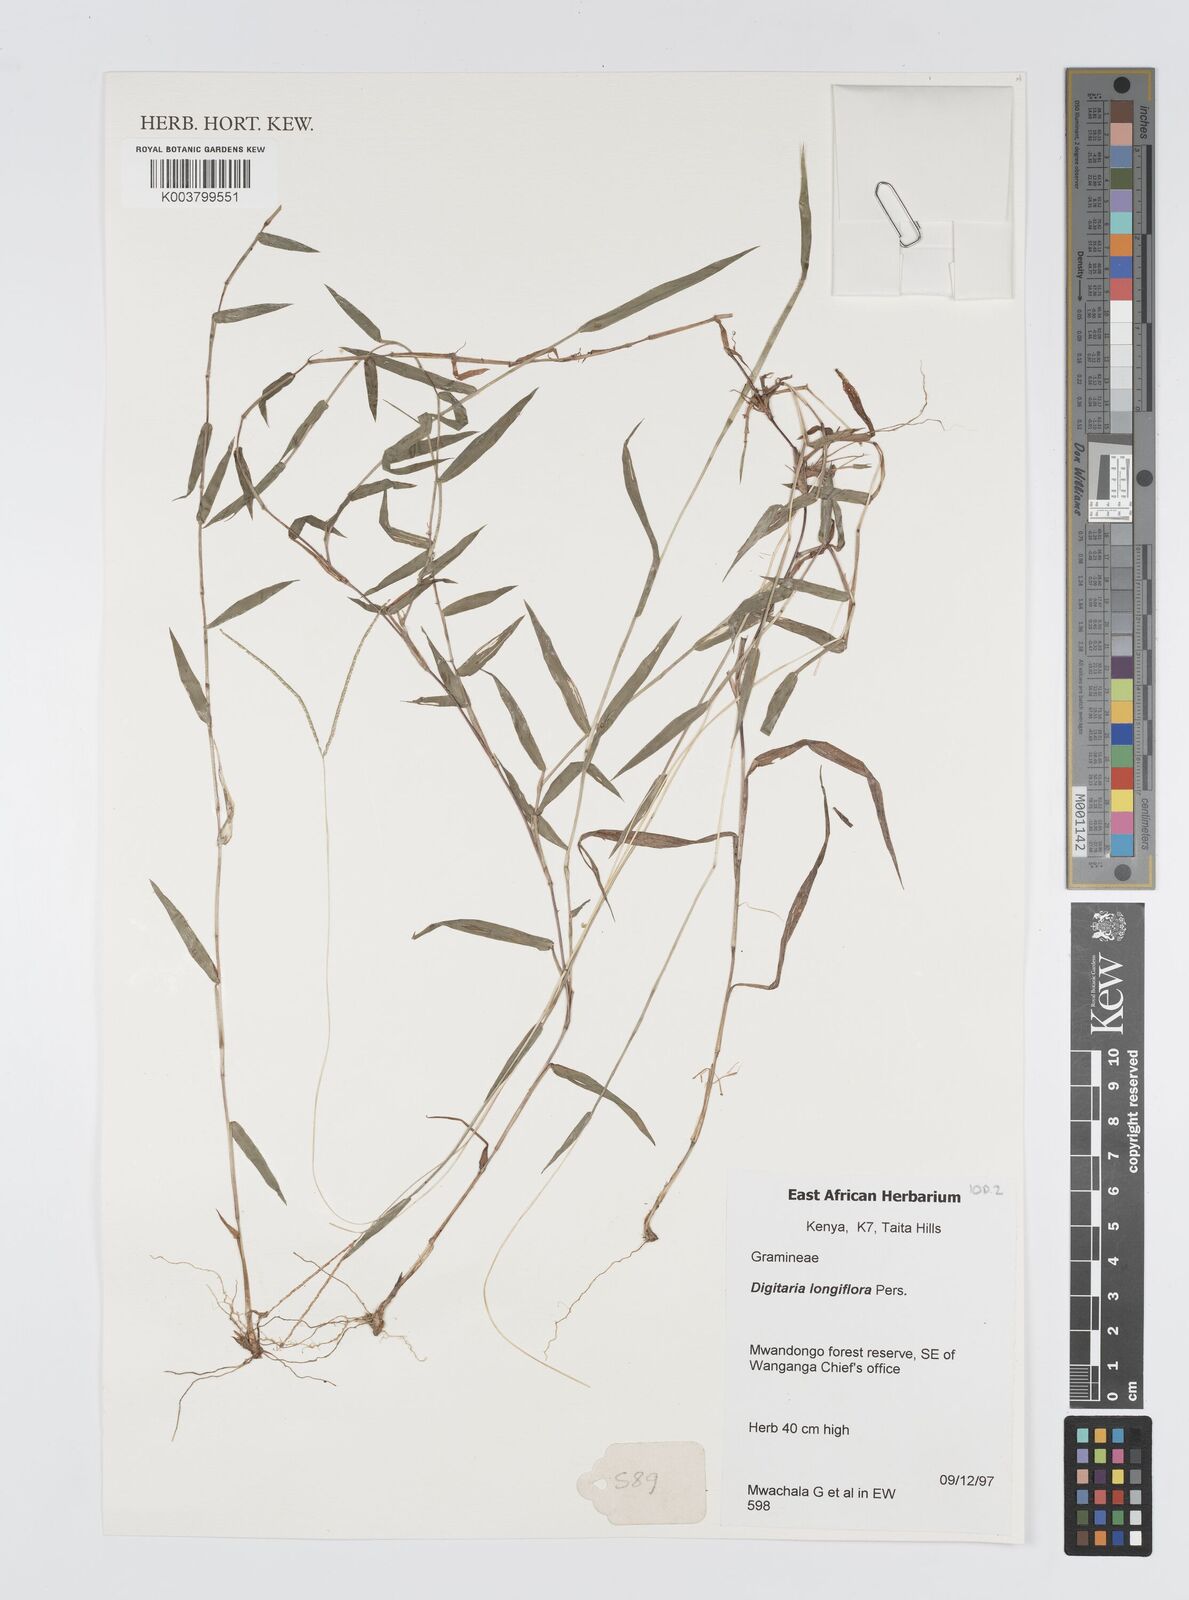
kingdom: Plantae
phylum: Tracheophyta
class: Liliopsida
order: Poales
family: Poaceae
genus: Digitaria
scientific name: Digitaria longiflora
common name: Wire crabgrass
